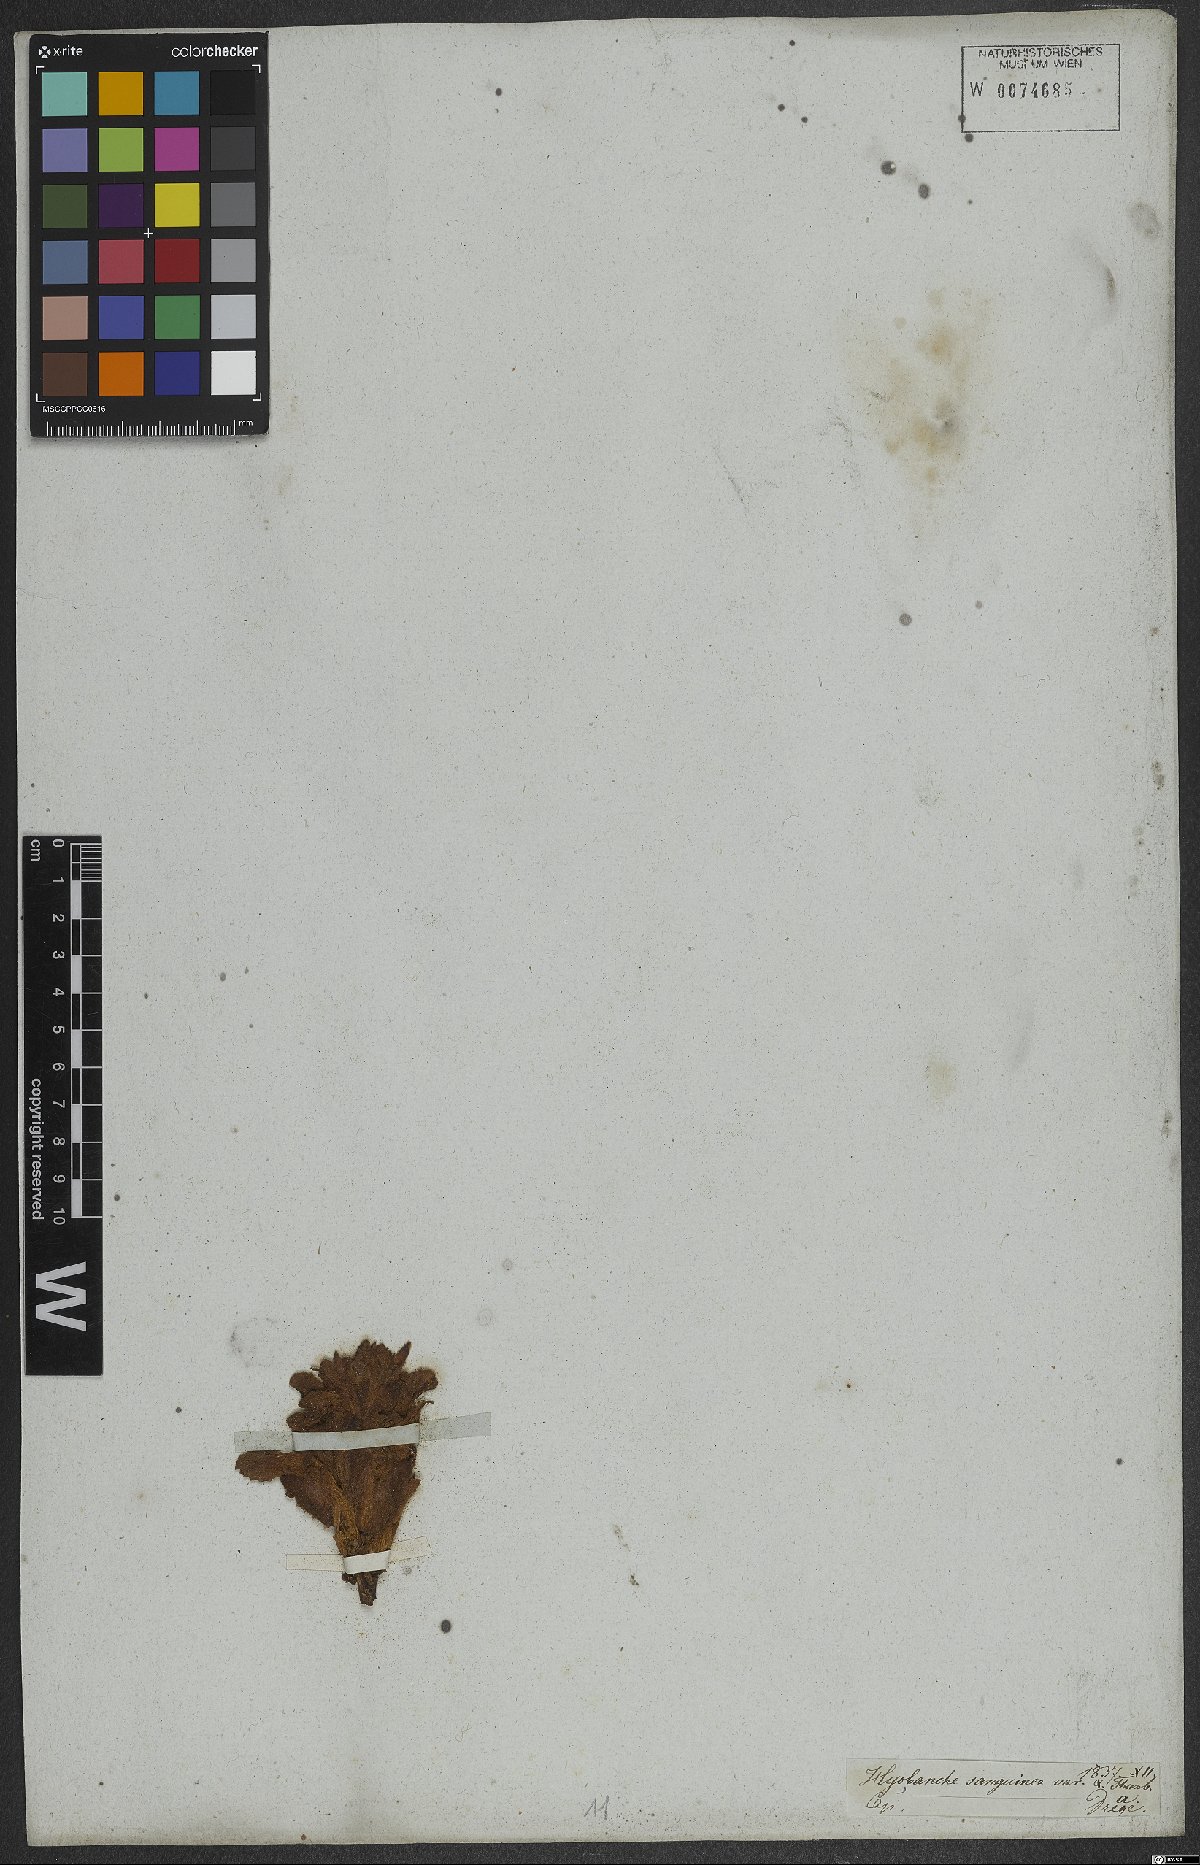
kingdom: Plantae
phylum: Tracheophyta
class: Magnoliopsida
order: Lamiales
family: Orobanchaceae
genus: Hyobanche
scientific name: Hyobanche sanguinea
